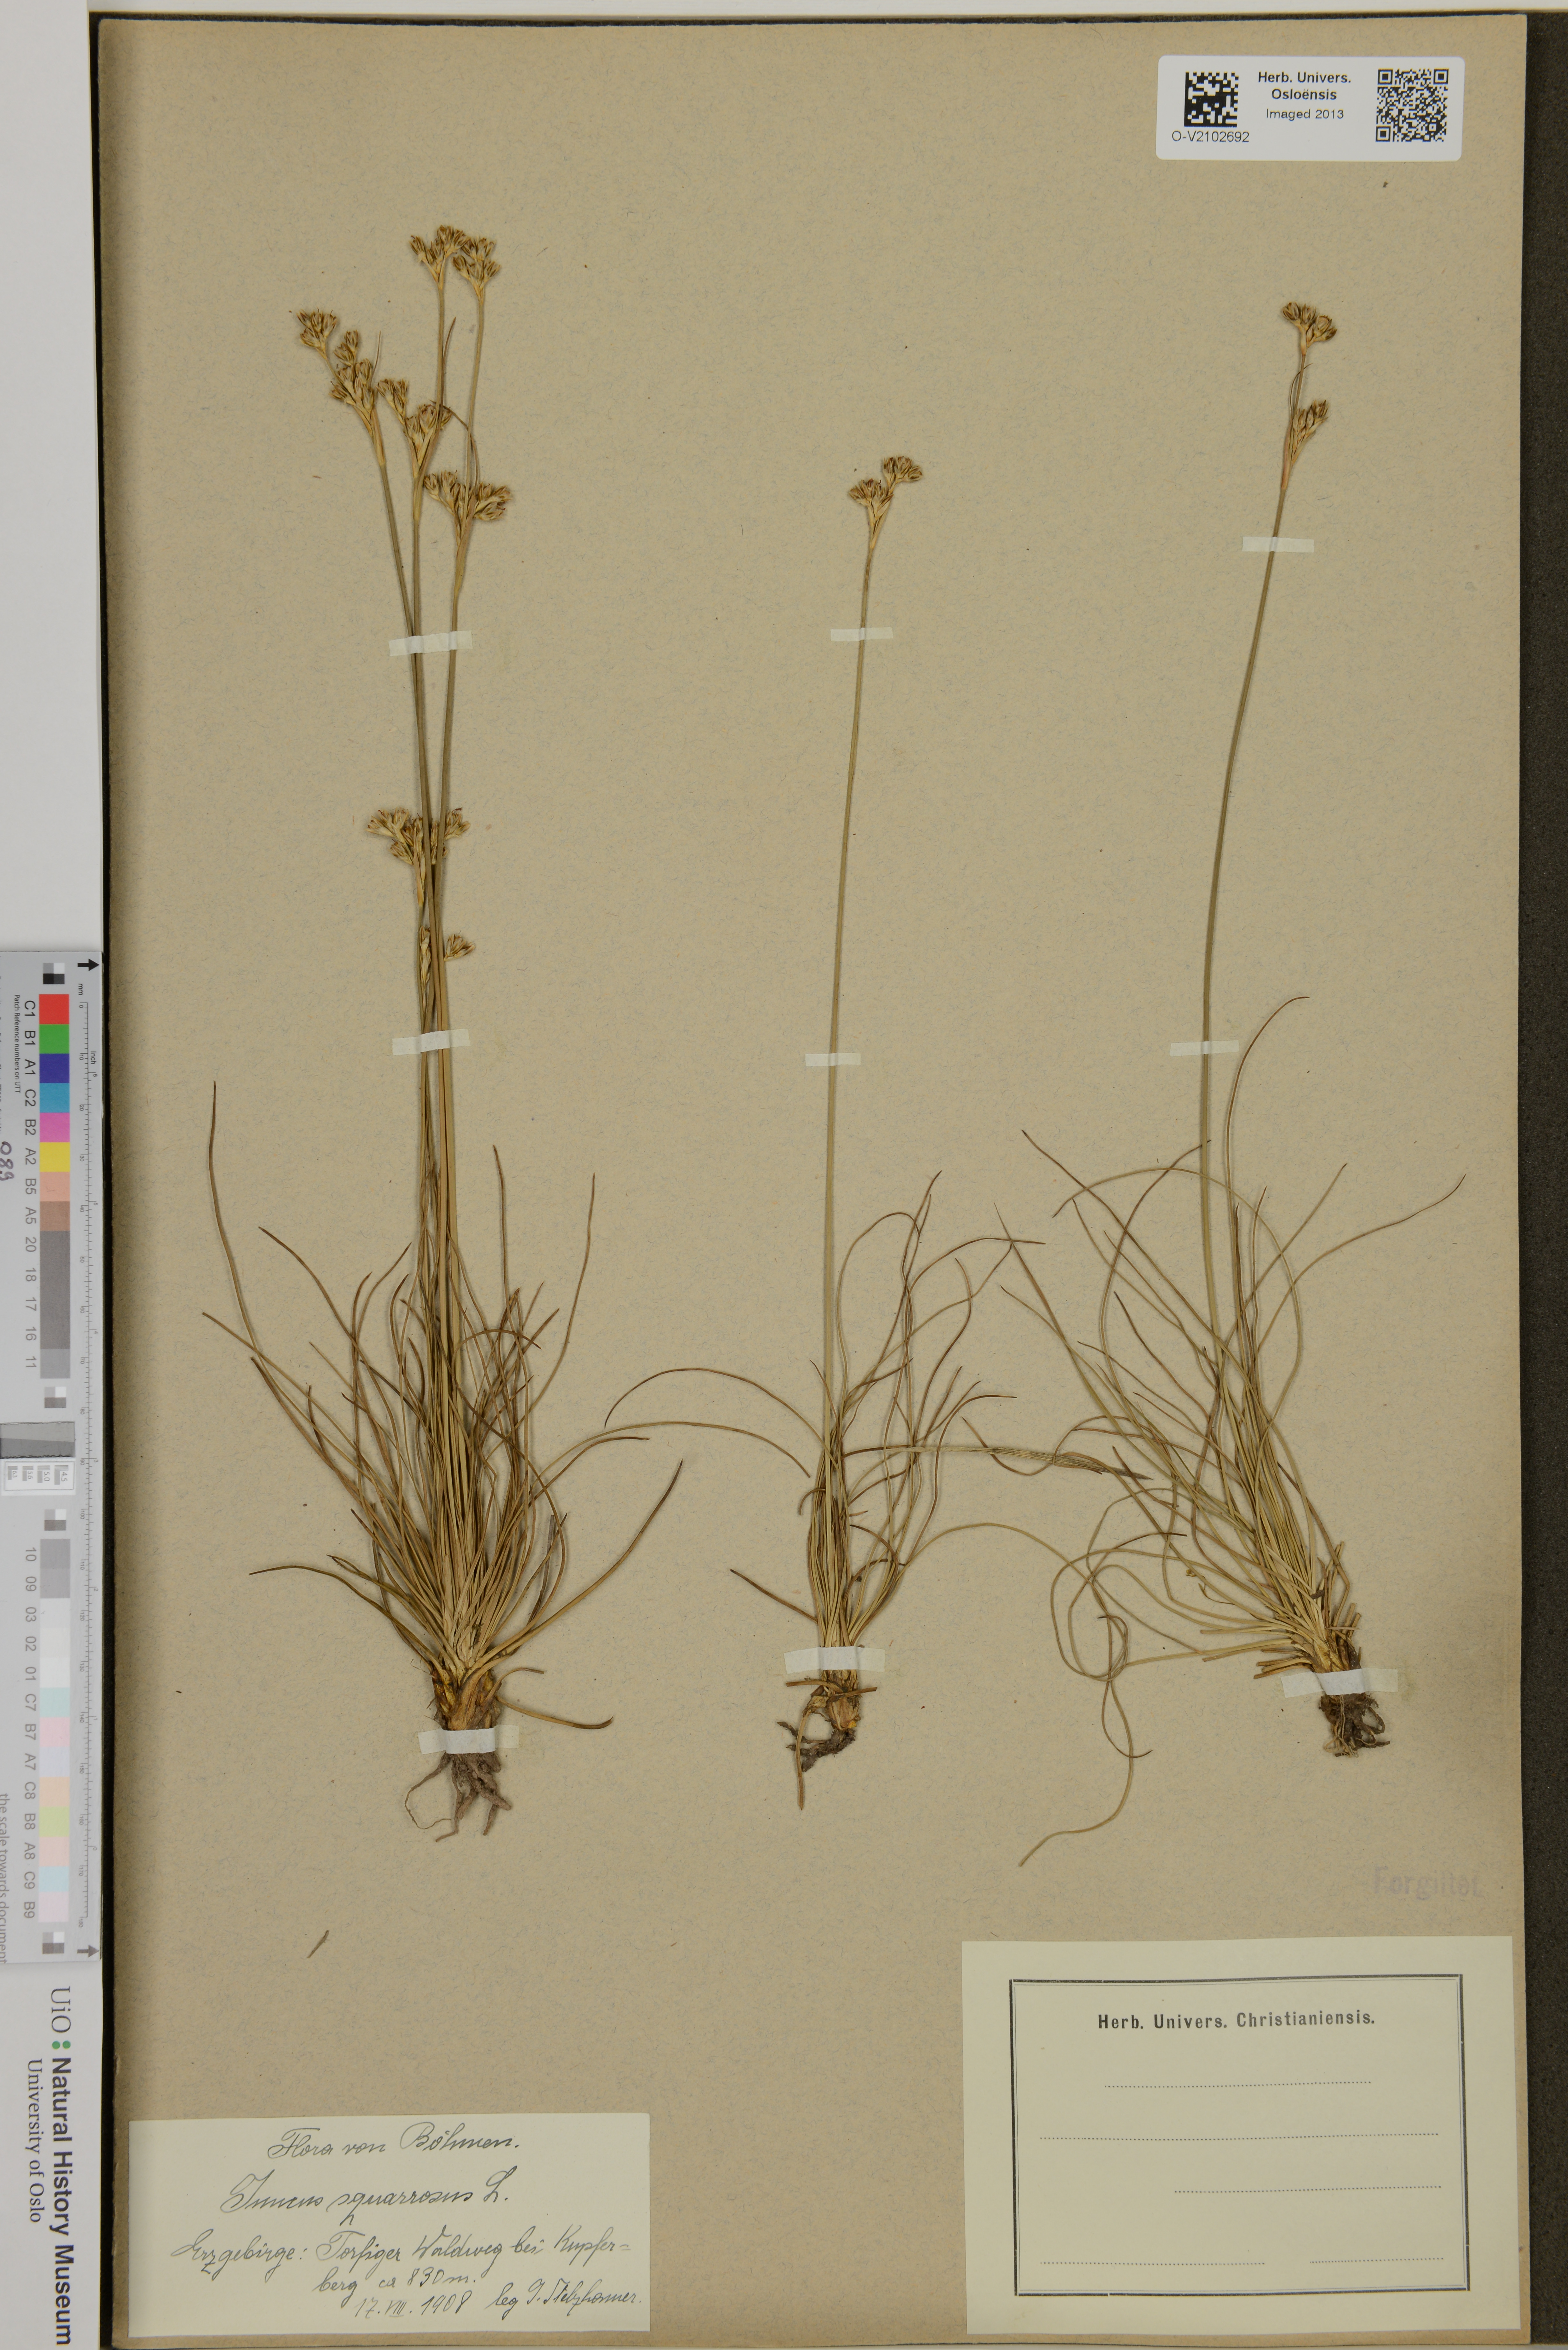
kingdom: Plantae
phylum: Tracheophyta
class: Liliopsida
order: Poales
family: Juncaceae
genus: Juncus
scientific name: Juncus squarrosus
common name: Heath rush
